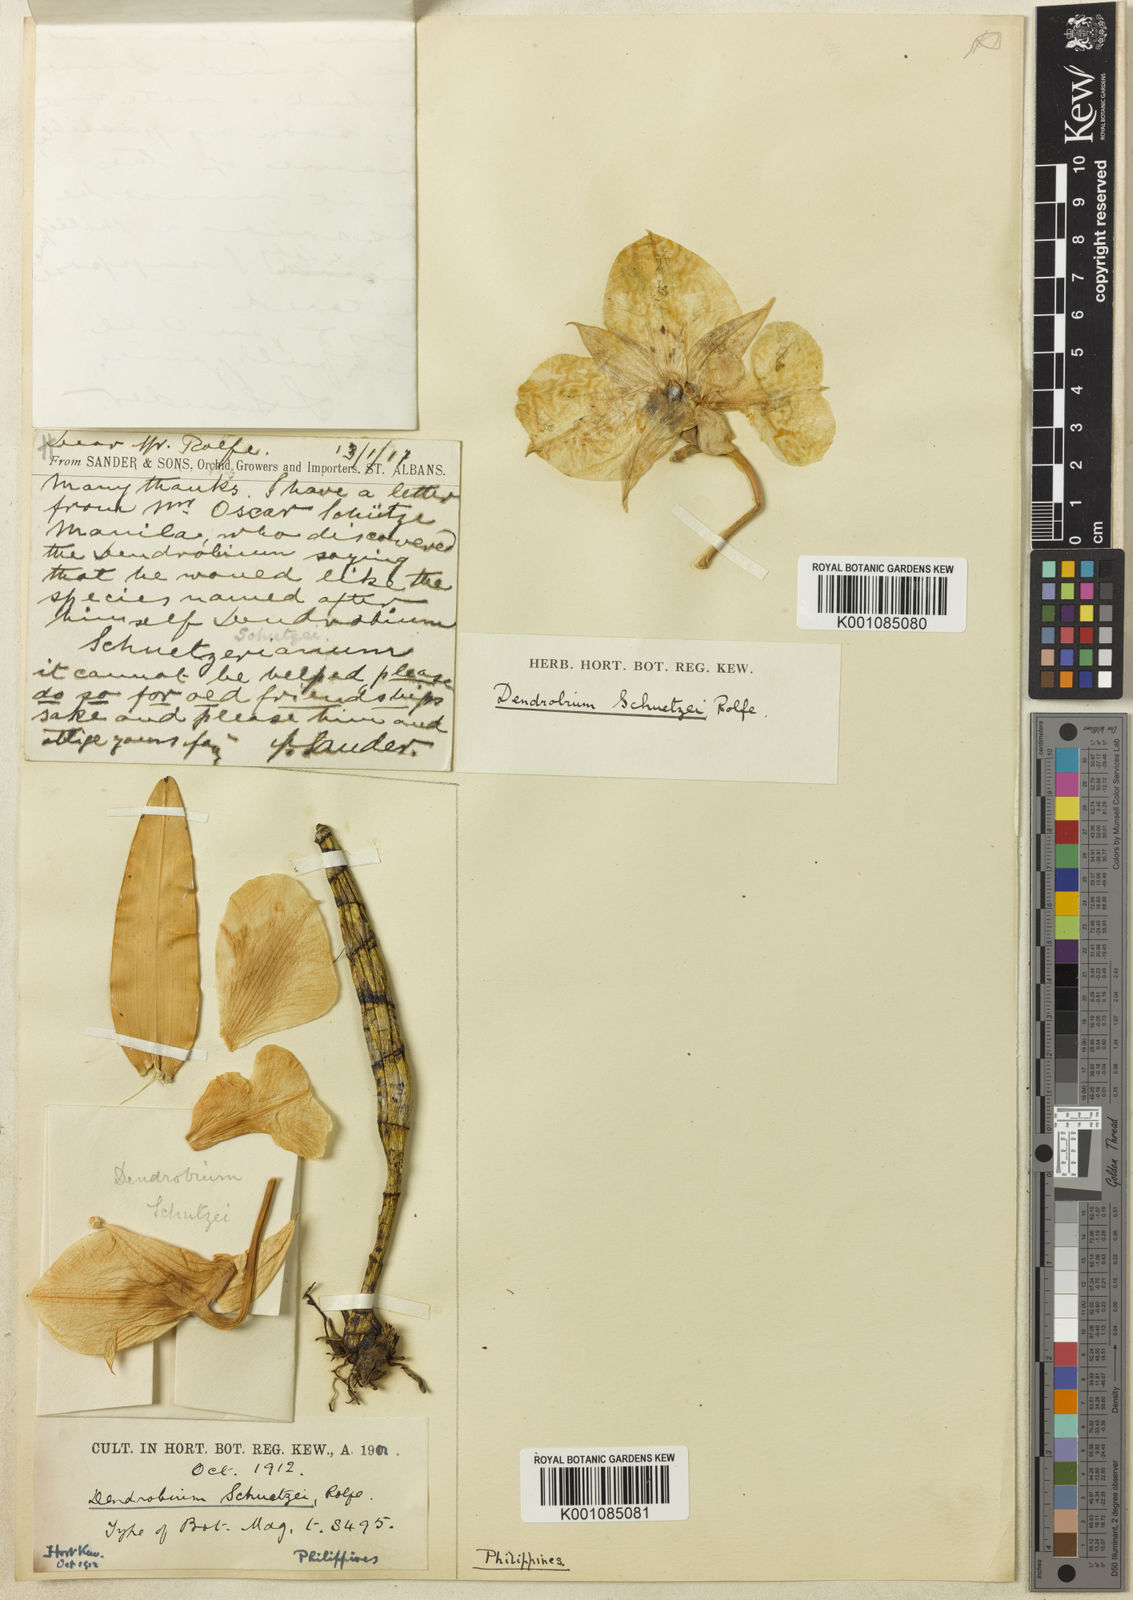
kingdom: Plantae
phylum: Tracheophyta
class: Liliopsida
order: Asparagales
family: Orchidaceae
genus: Dendrobium
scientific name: Dendrobium schuetzei
